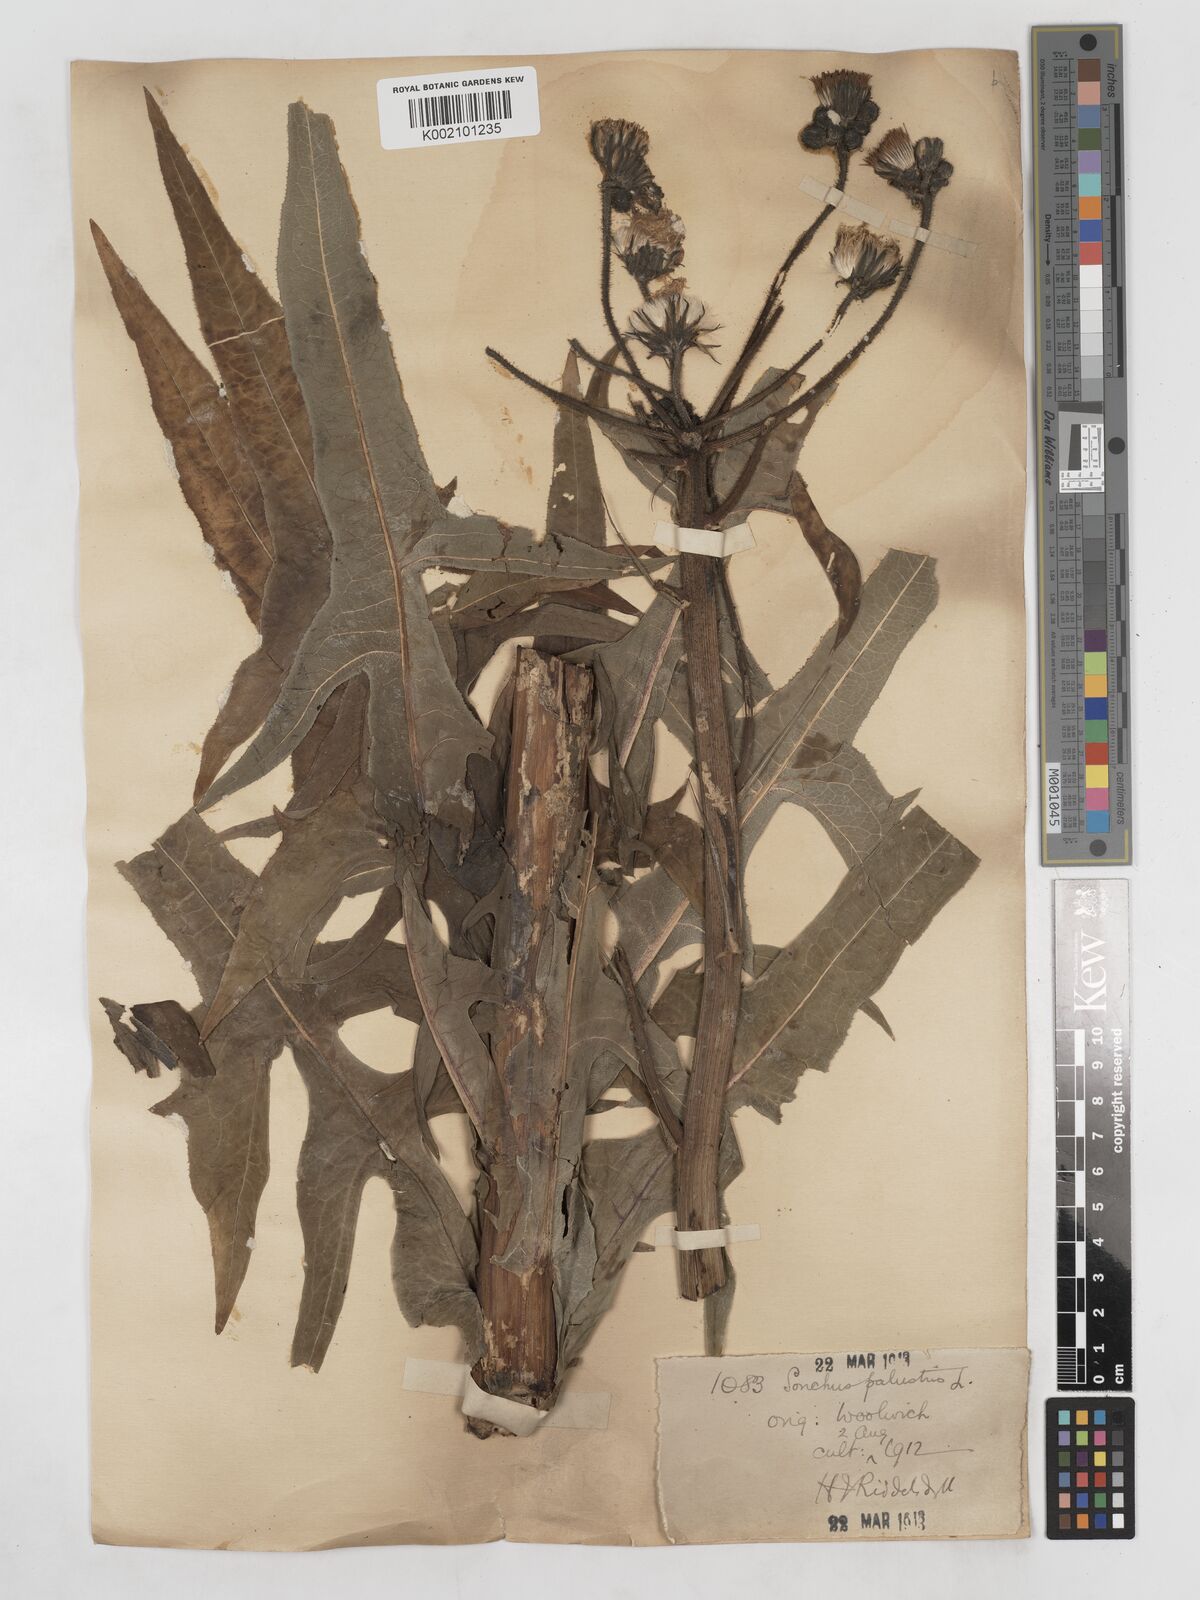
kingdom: Plantae
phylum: Tracheophyta
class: Magnoliopsida
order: Asterales
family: Asteraceae
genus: Sonchus
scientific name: Sonchus palustris
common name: Marsh sow-thistle
